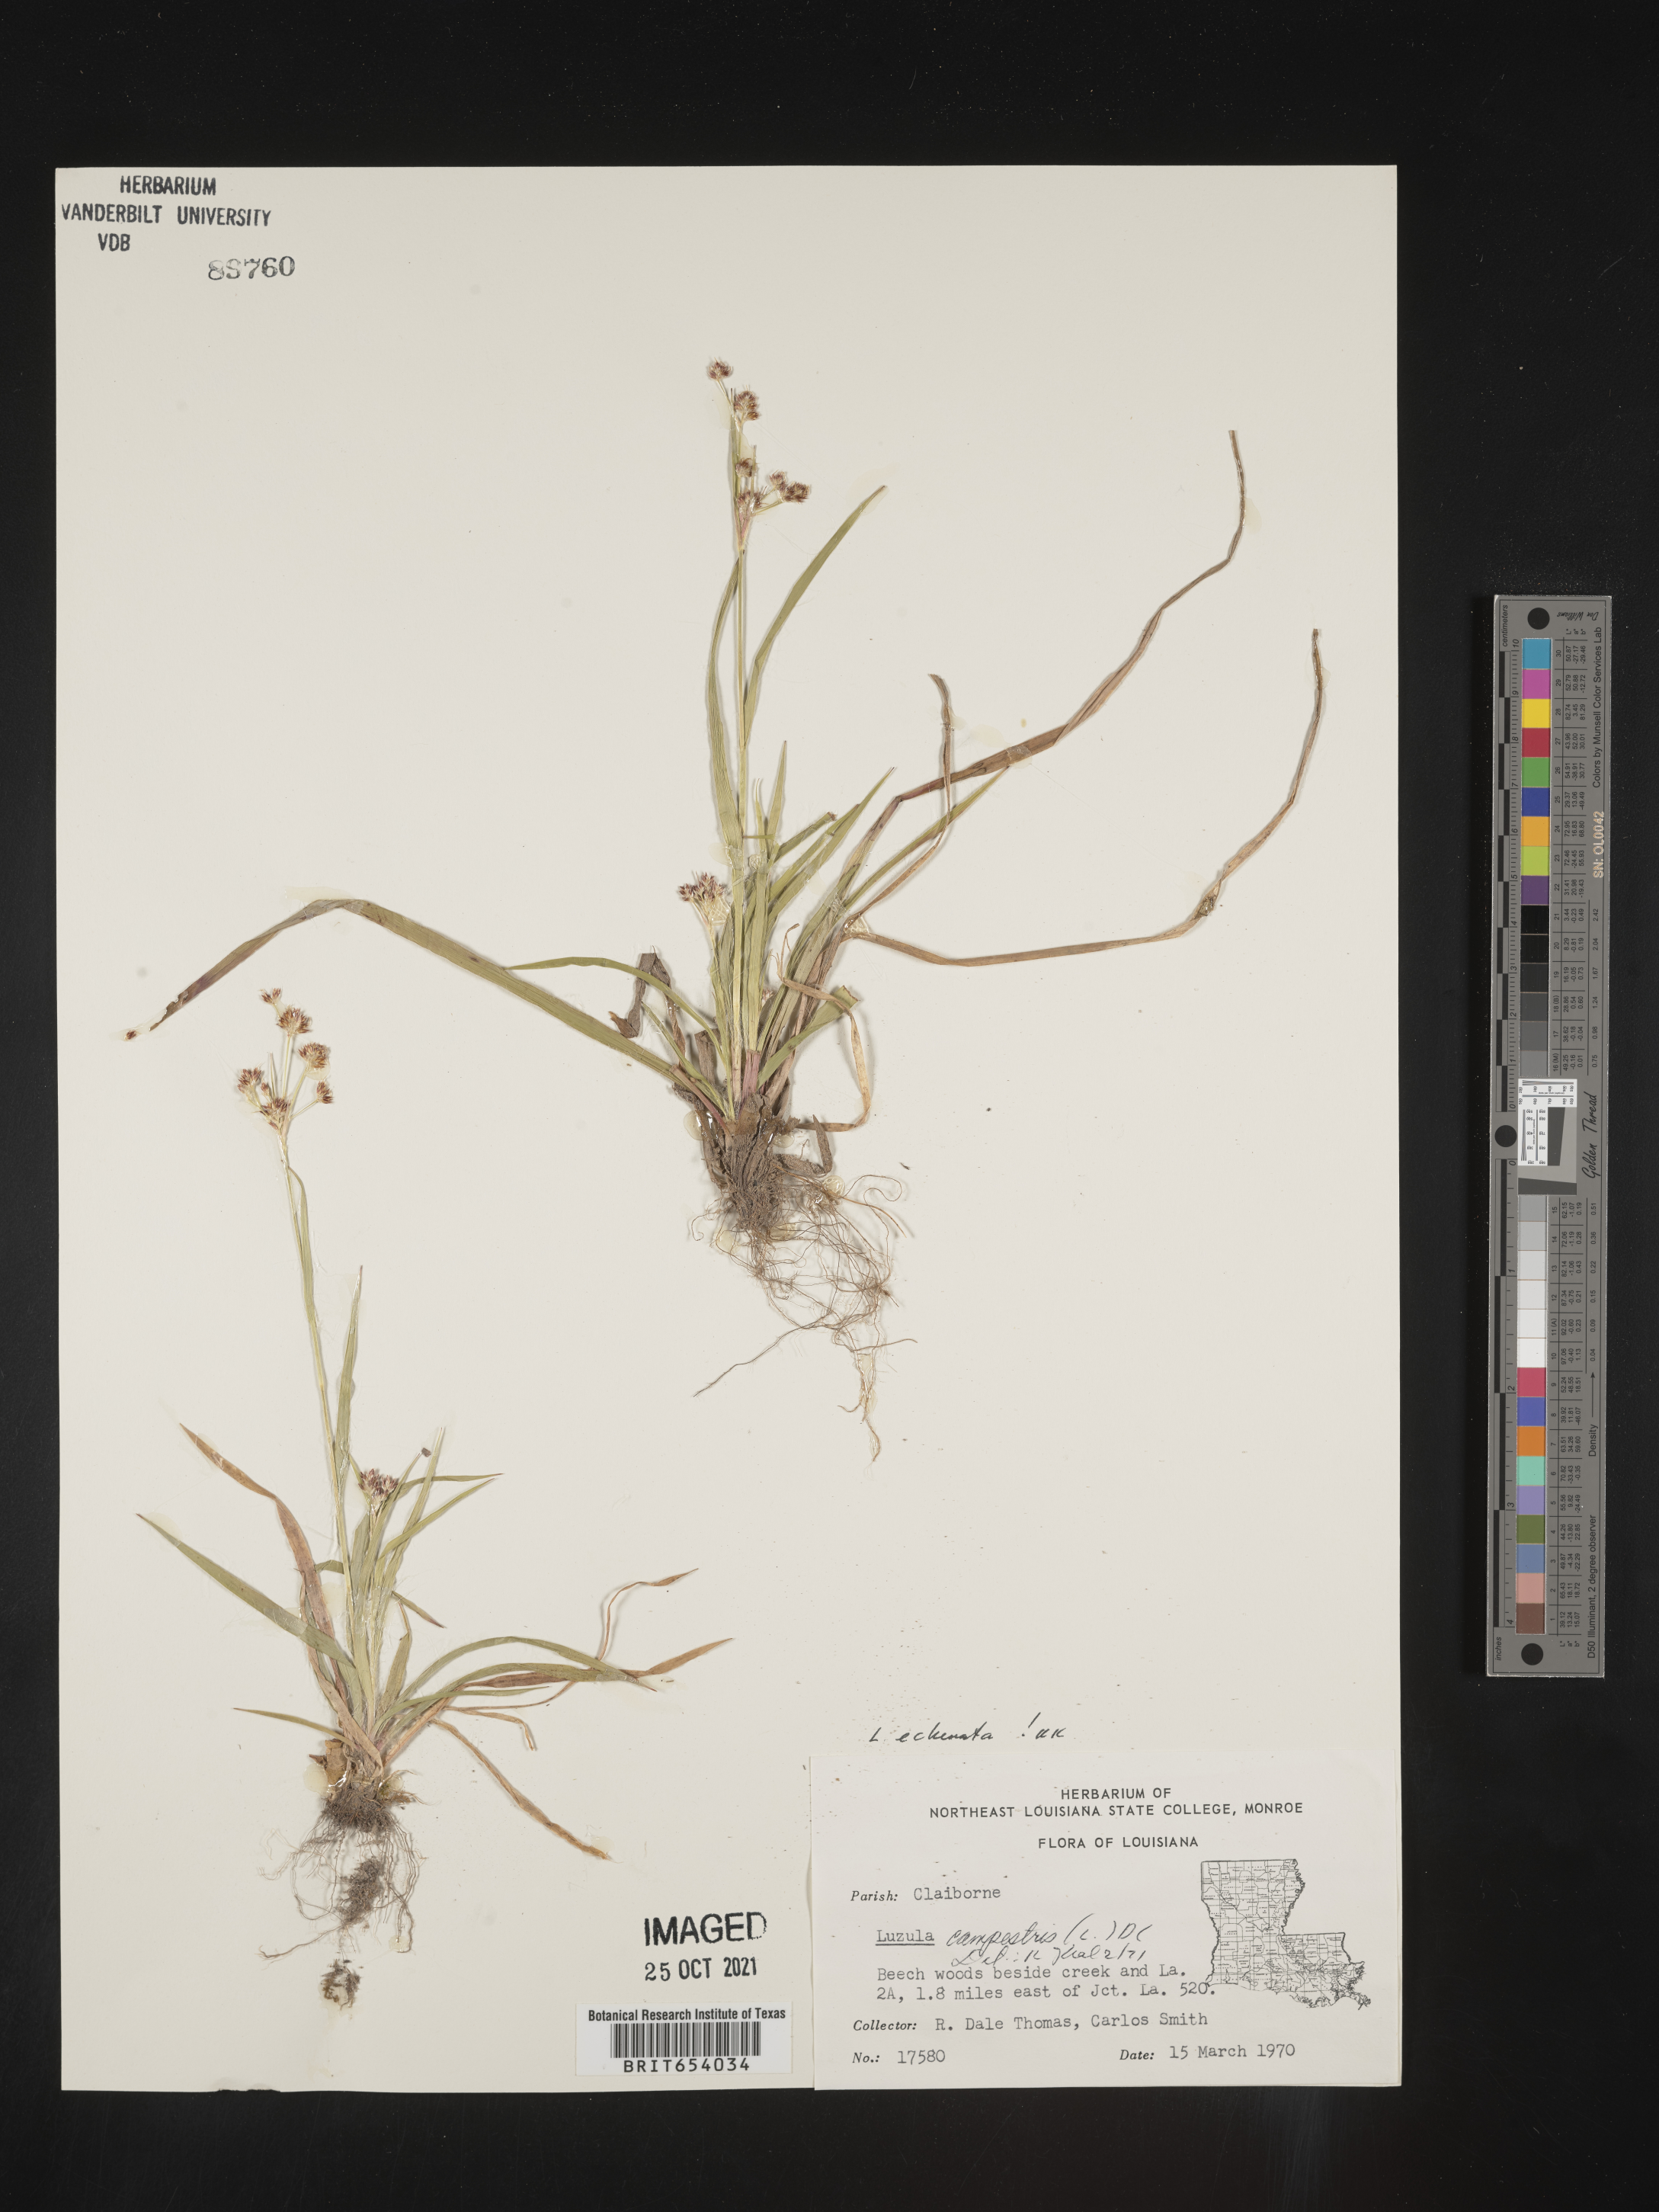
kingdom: Plantae
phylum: Tracheophyta
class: Liliopsida
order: Poales
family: Juncaceae
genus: Luzula
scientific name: Luzula echinata
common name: Hedgehog woodrush
